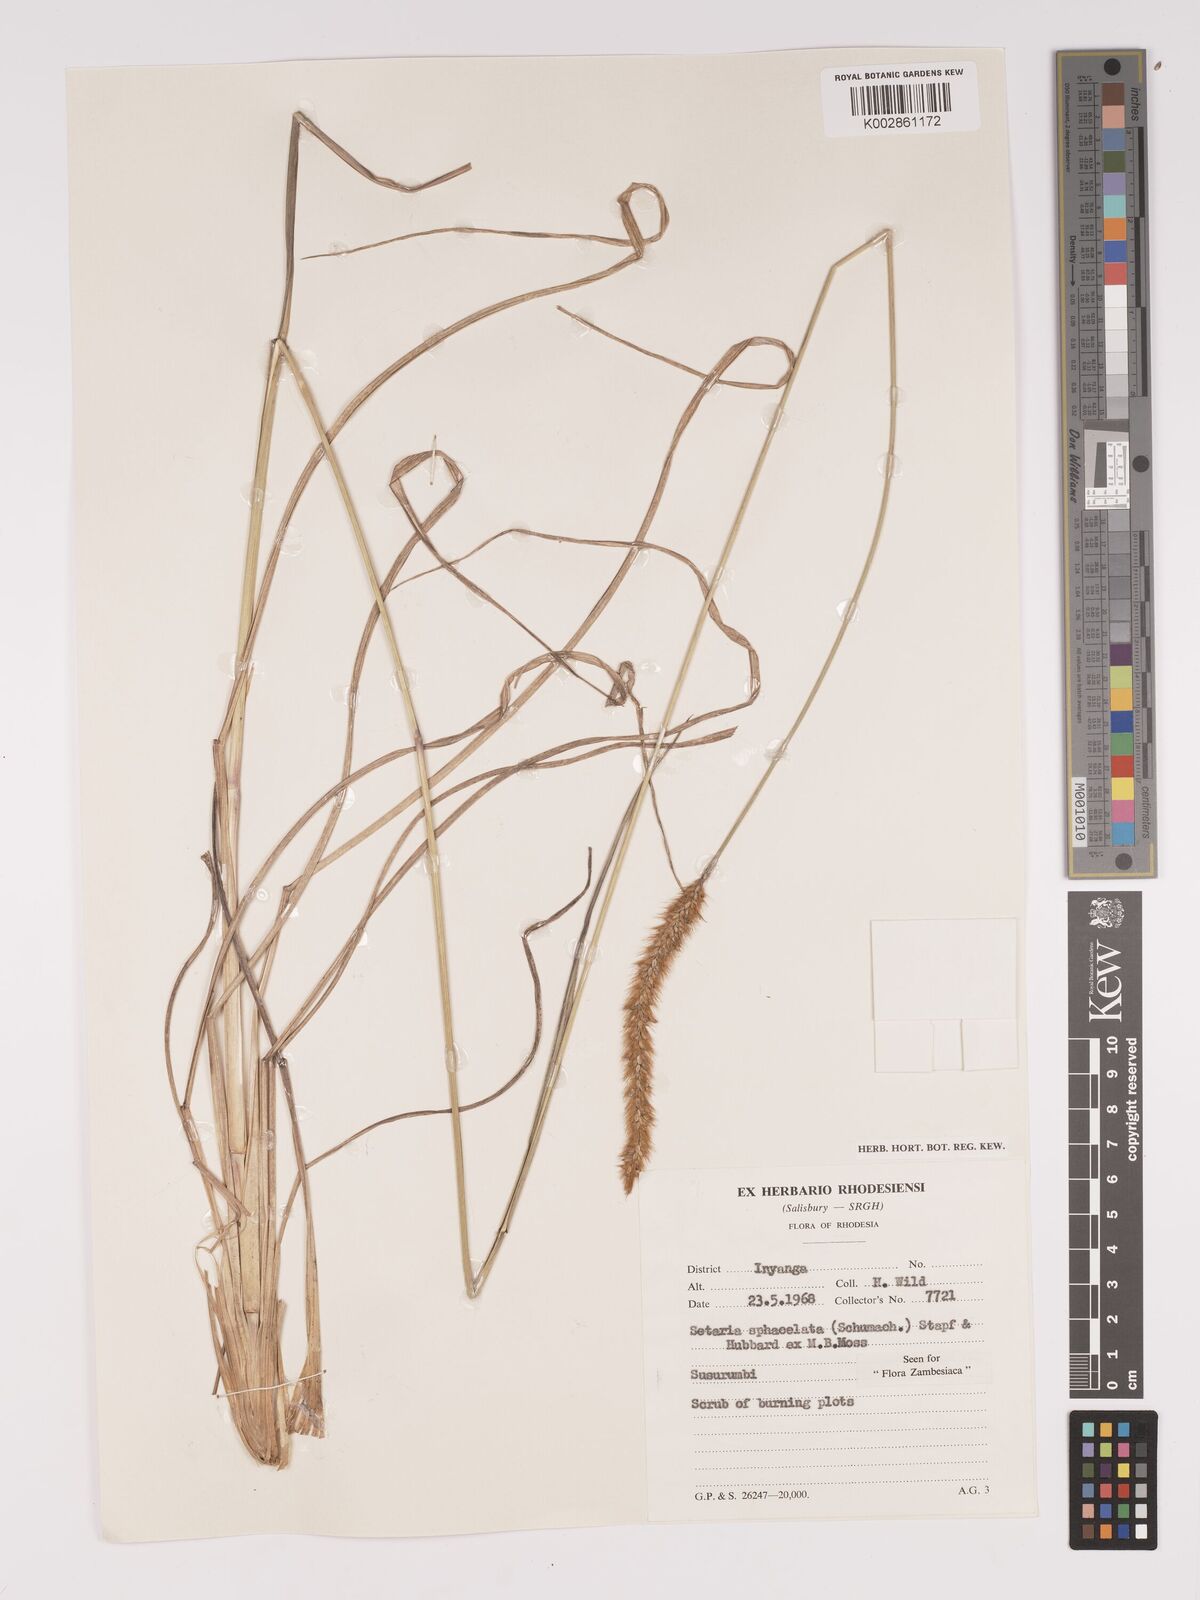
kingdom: Plantae
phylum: Tracheophyta
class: Liliopsida
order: Poales
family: Poaceae
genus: Setaria
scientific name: Setaria sphacelata
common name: African bristlegrass
